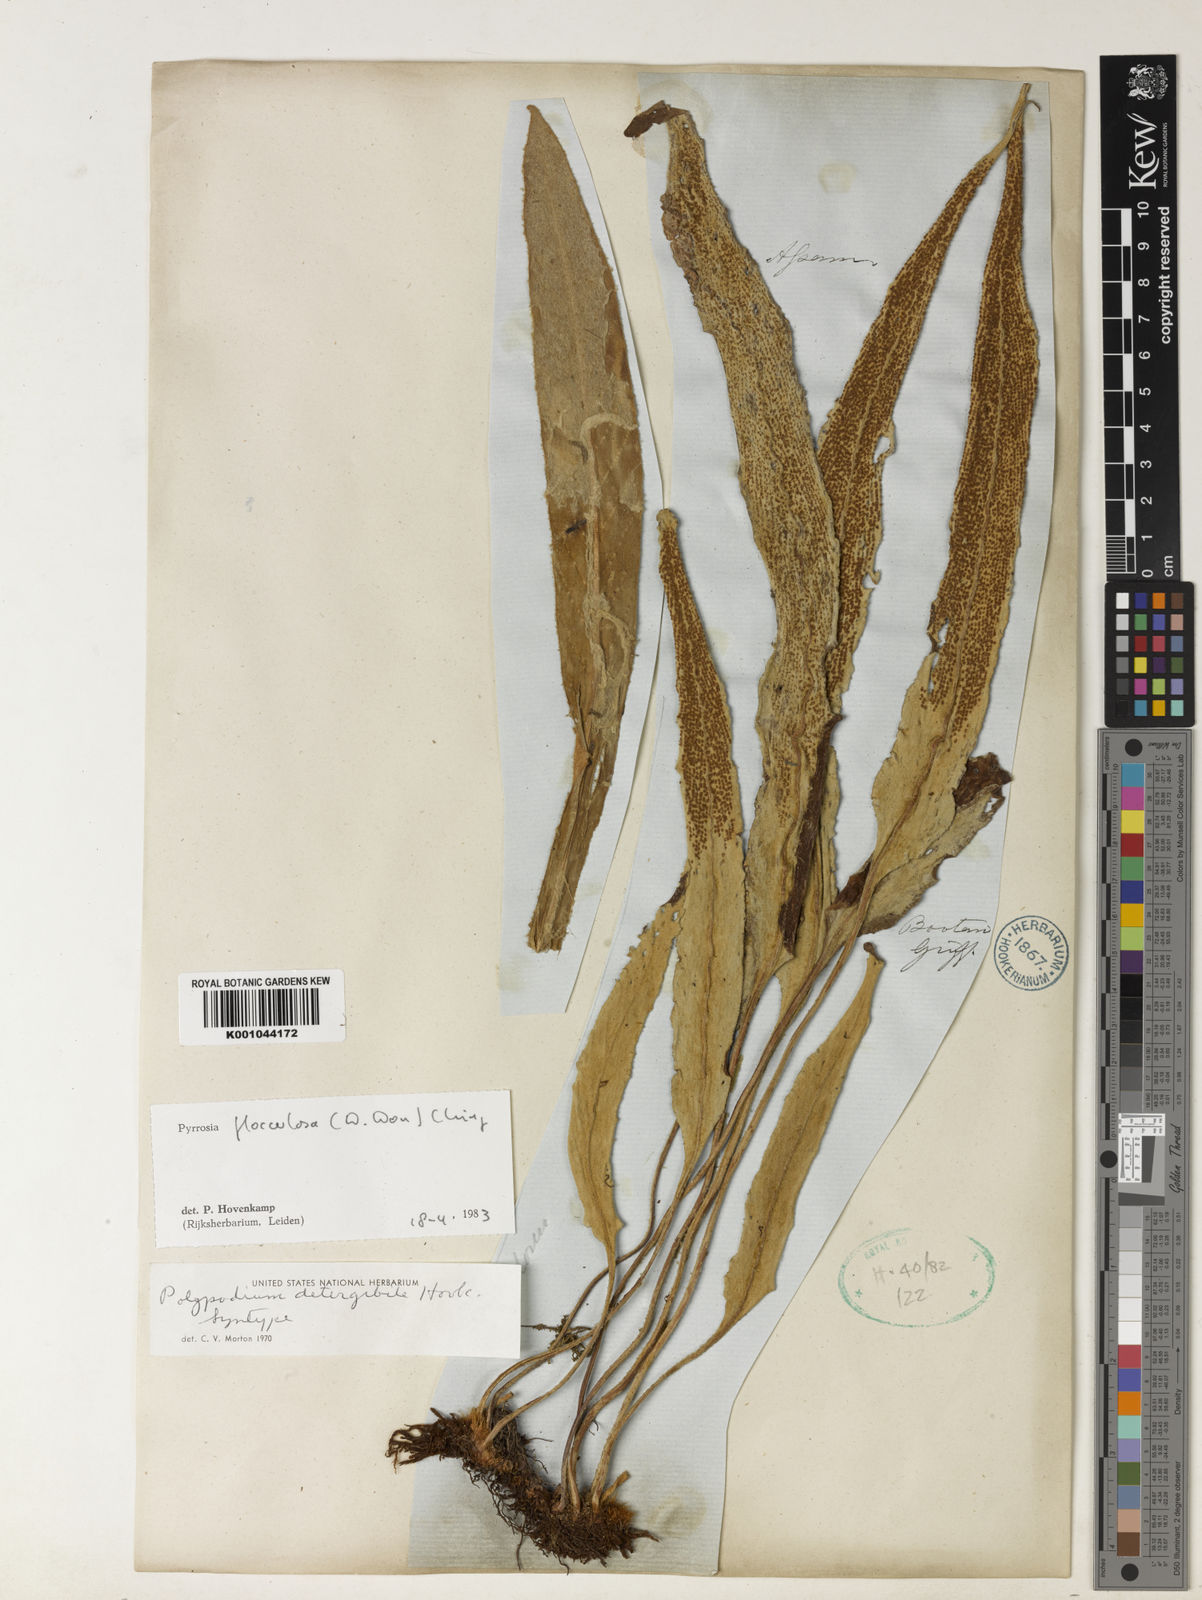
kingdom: Plantae
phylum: Tracheophyta
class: Polypodiopsida
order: Polypodiales
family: Polypodiaceae
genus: Pyrrosia
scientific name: Pyrrosia flocculosa
